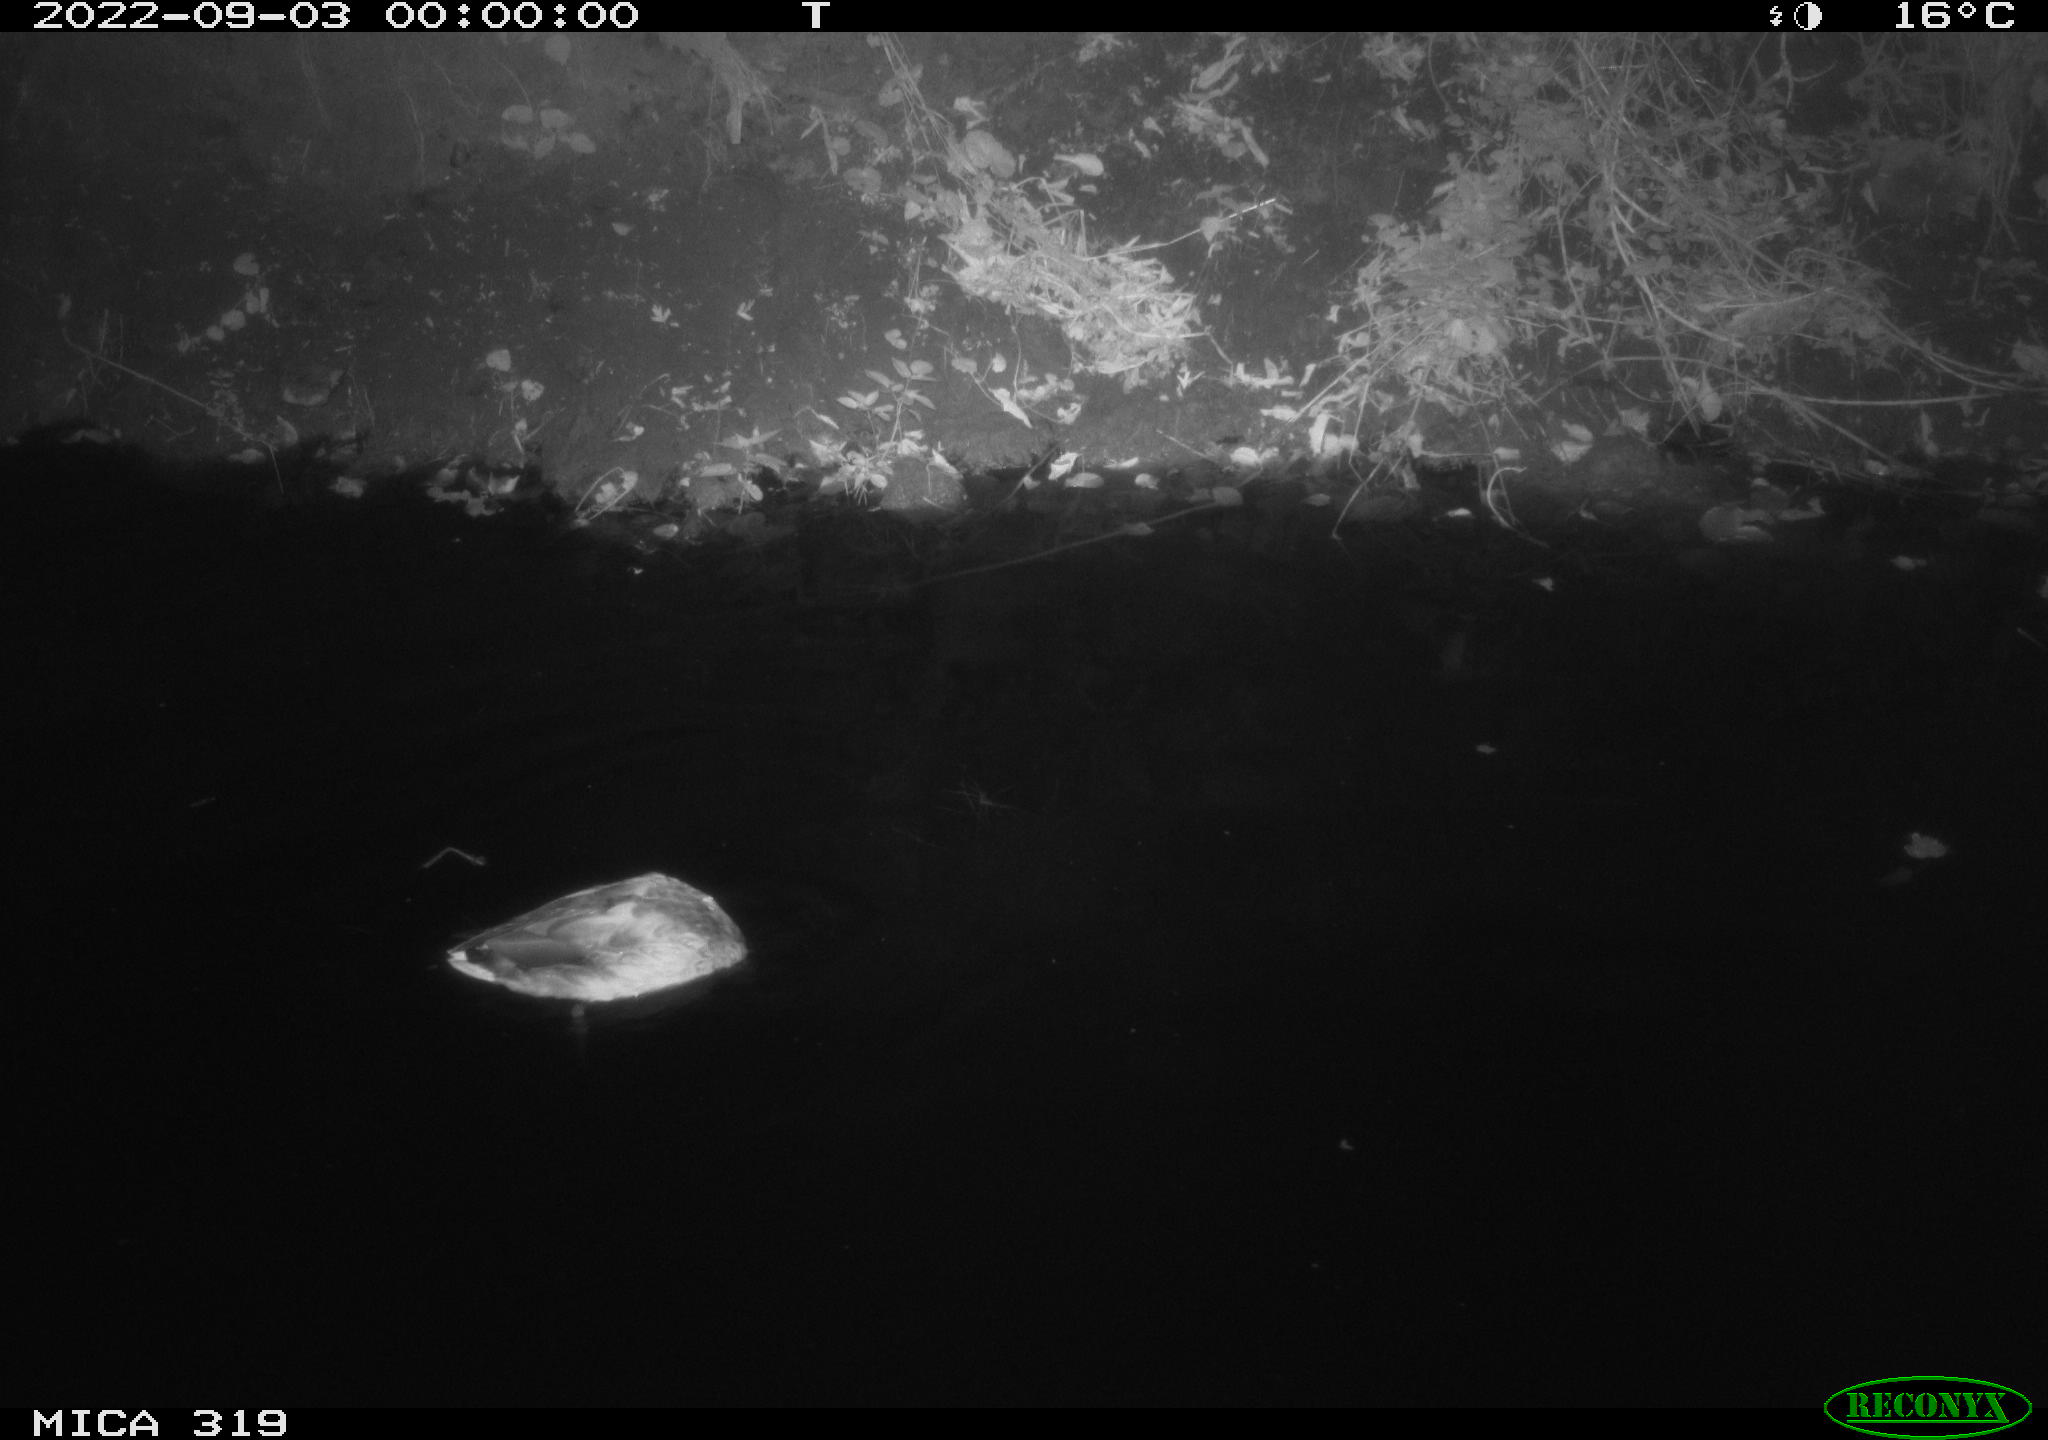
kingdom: Animalia
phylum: Chordata
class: Aves
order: Anseriformes
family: Anatidae
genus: Anas
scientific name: Anas
